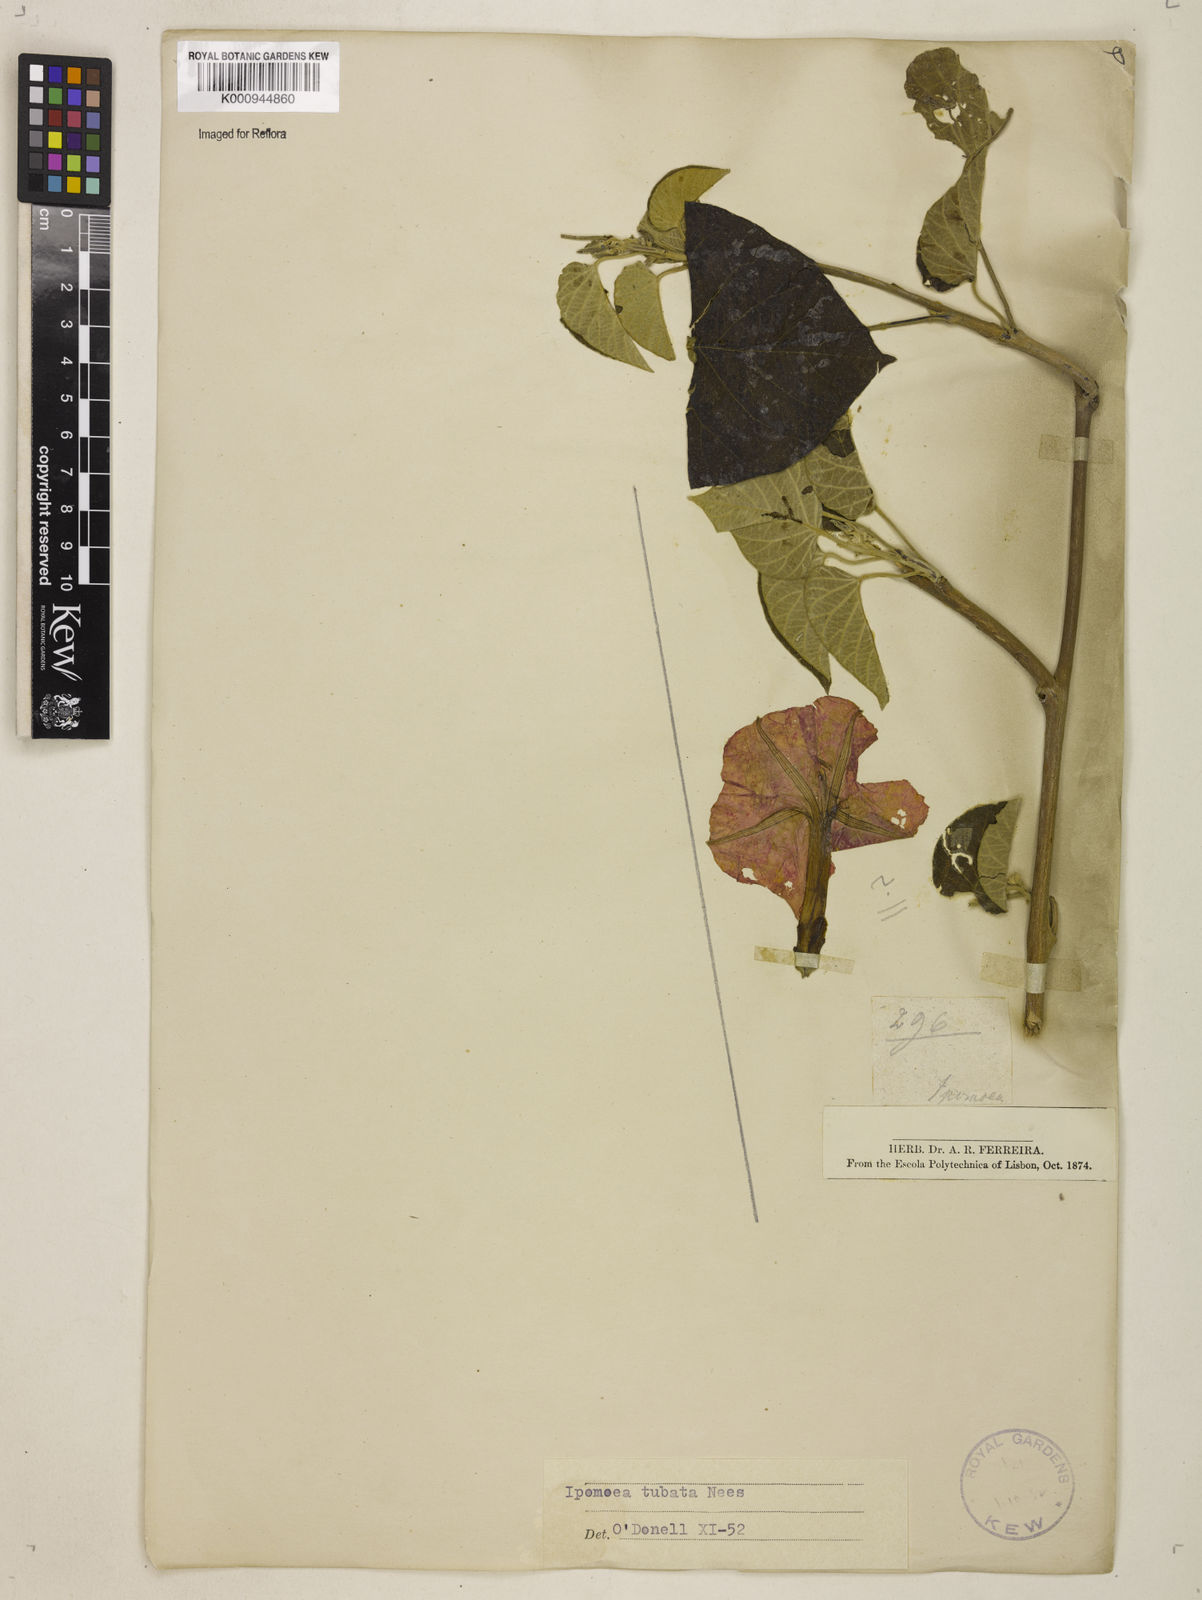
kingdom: Plantae
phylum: Tracheophyta
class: Magnoliopsida
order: Solanales
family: Convolvulaceae
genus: Ipomoea
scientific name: Ipomoea sidifolia
